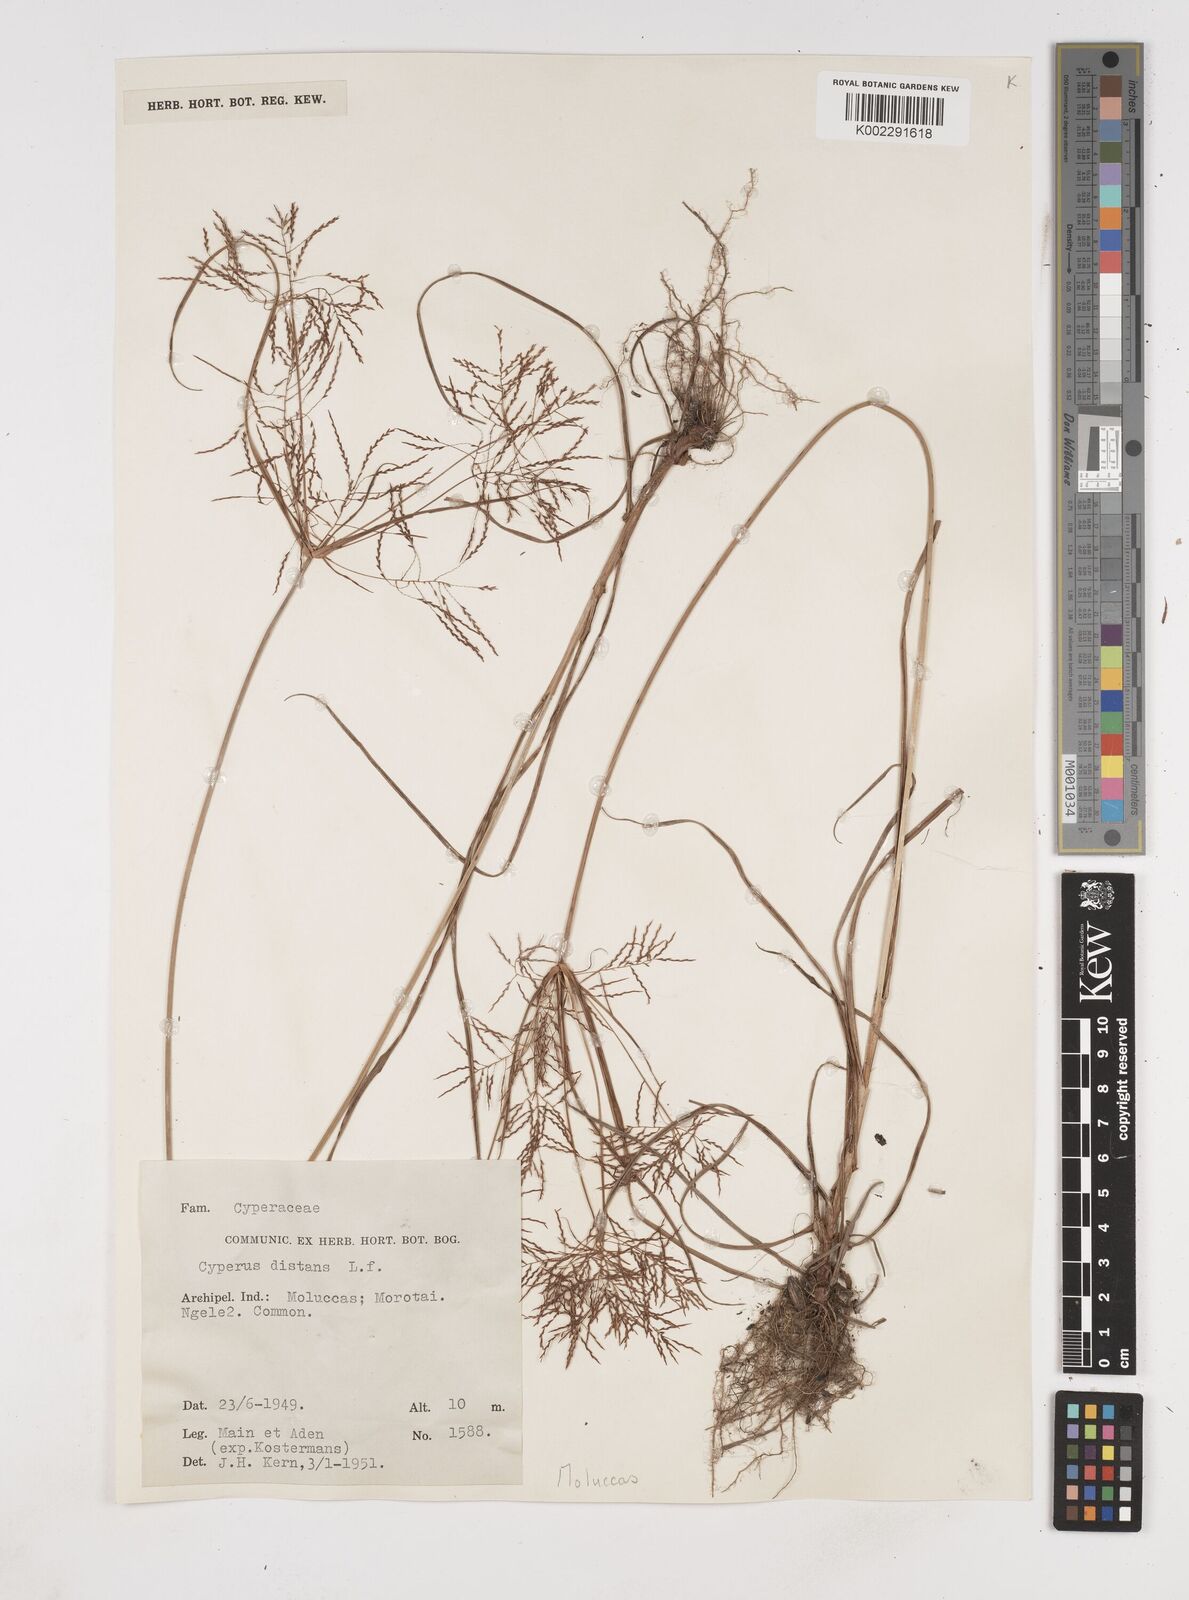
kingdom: Plantae
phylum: Tracheophyta
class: Liliopsida
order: Poales
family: Cyperaceae
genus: Cyperus
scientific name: Cyperus distans
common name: Slender cyperus
